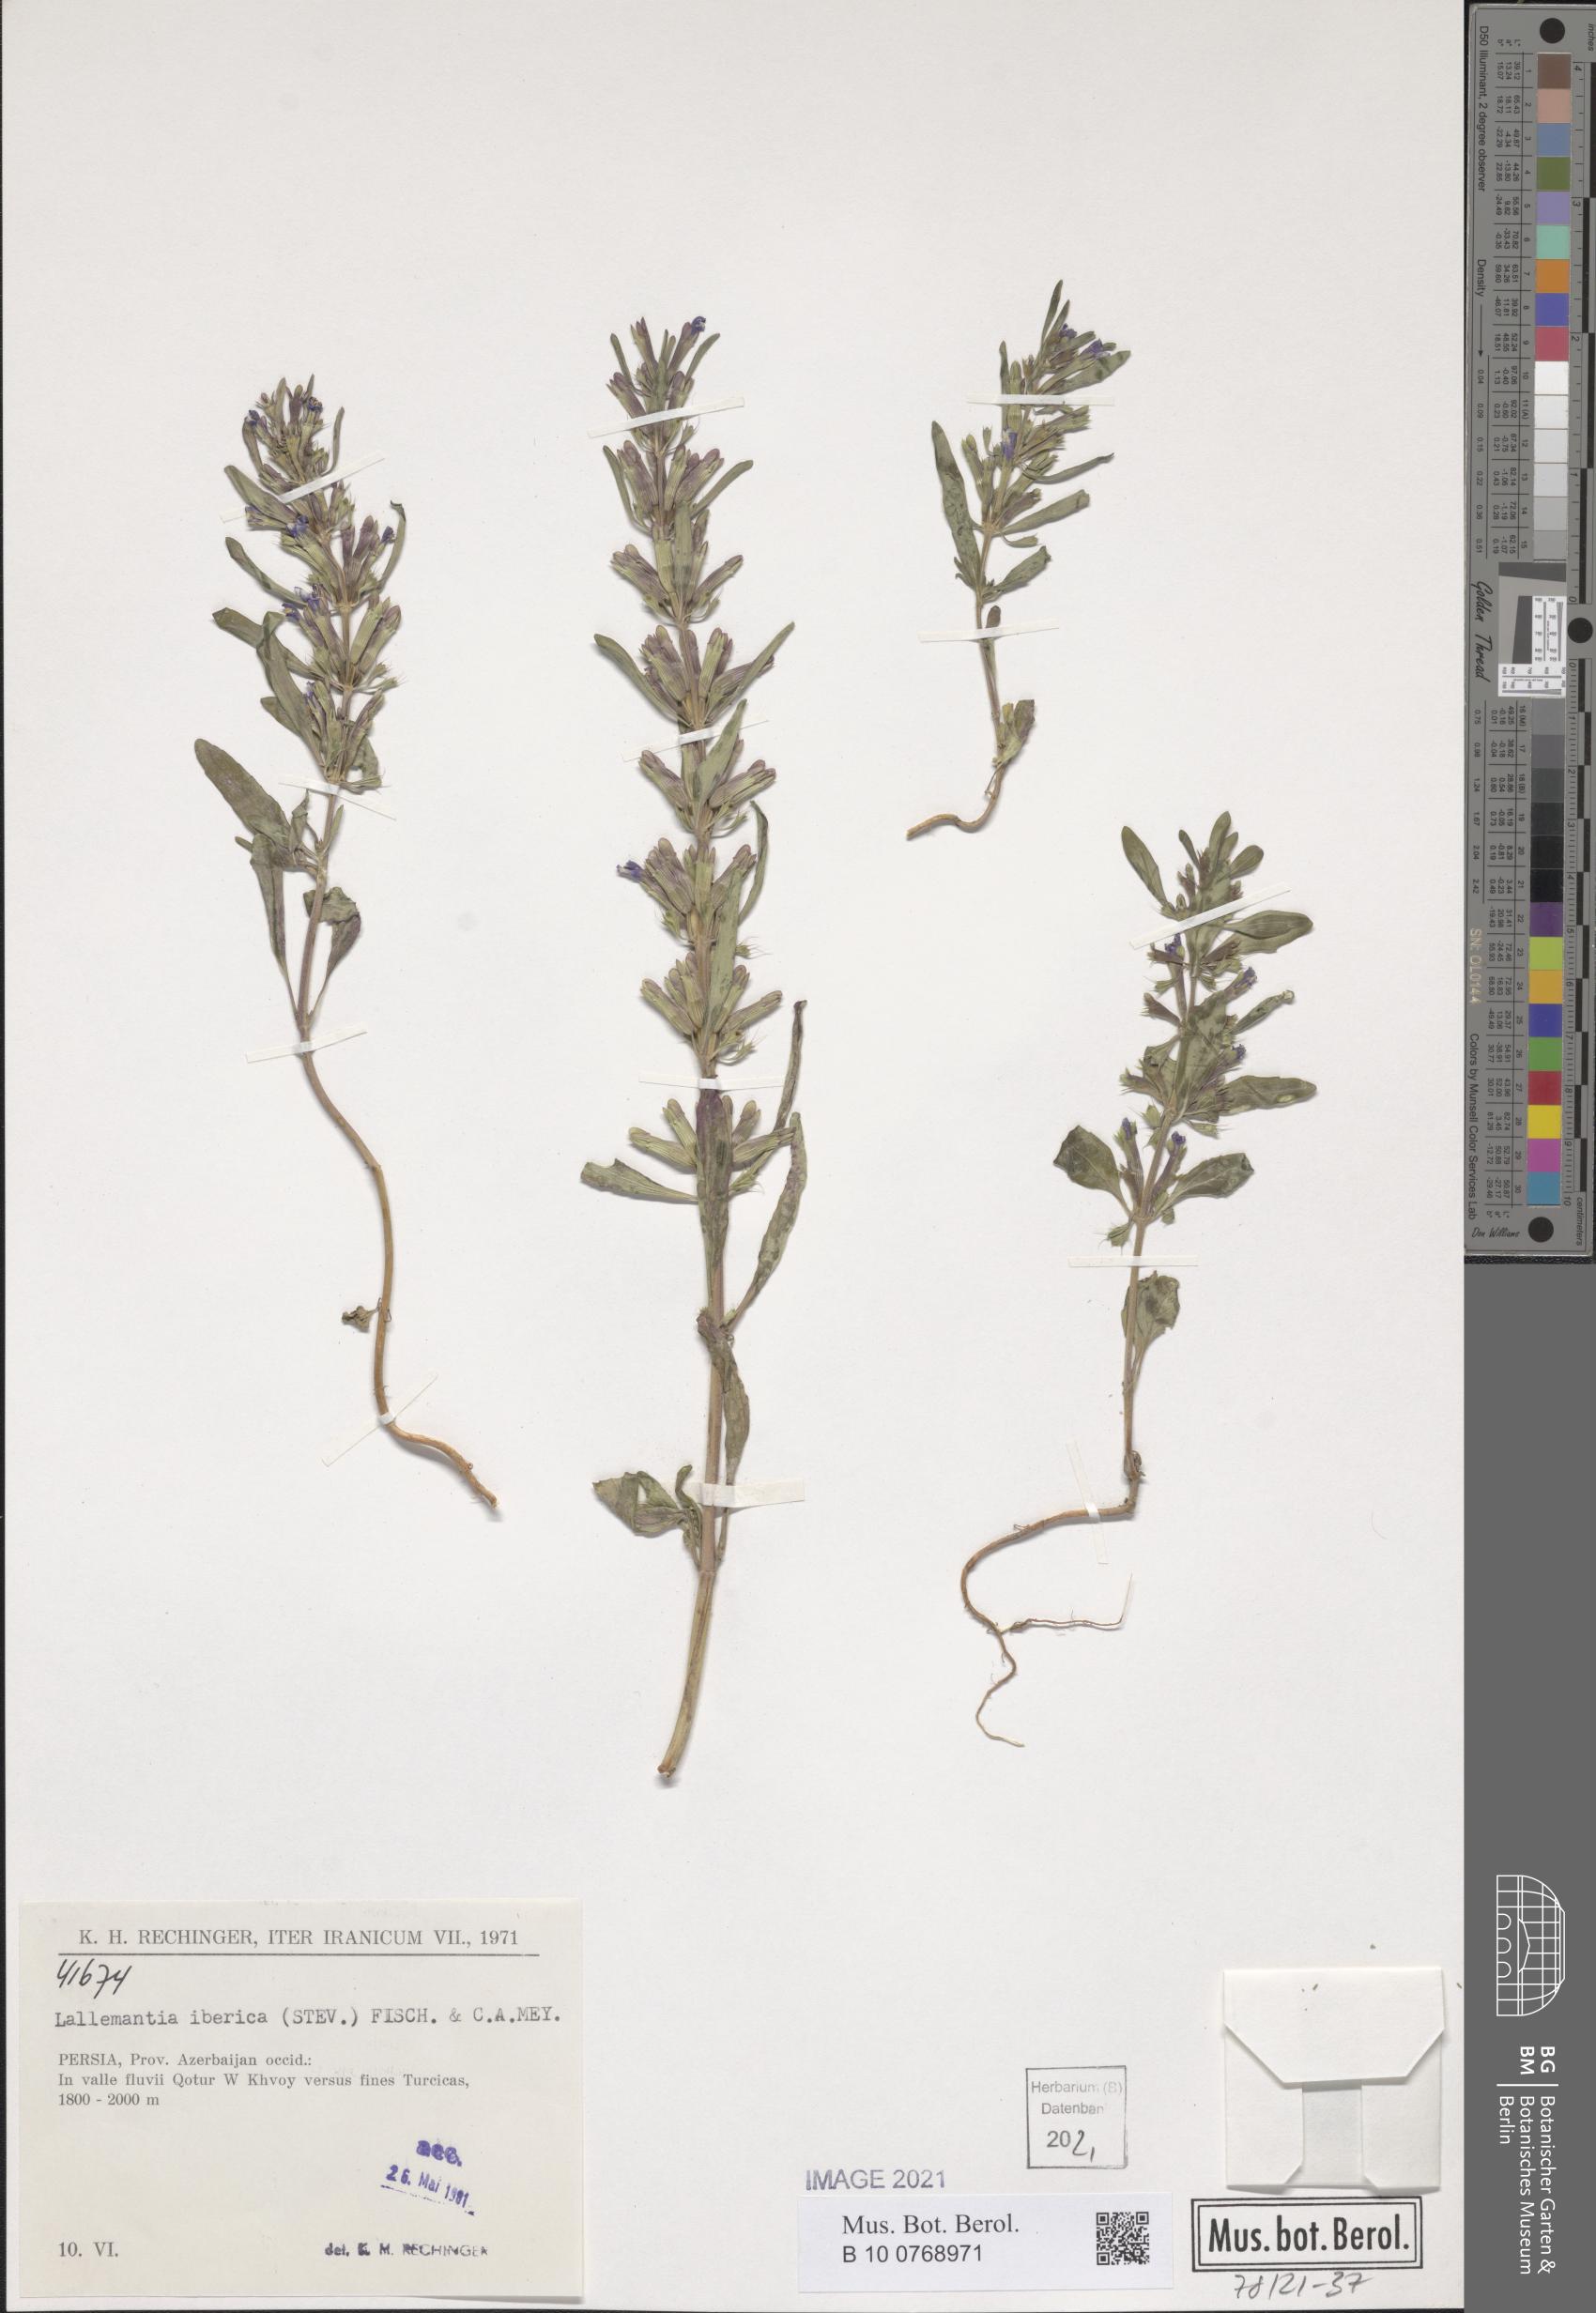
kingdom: Plantae
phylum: Tracheophyta
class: Magnoliopsida
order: Lamiales
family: Lamiaceae
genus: Lallemantia
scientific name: Lallemantia iberica
